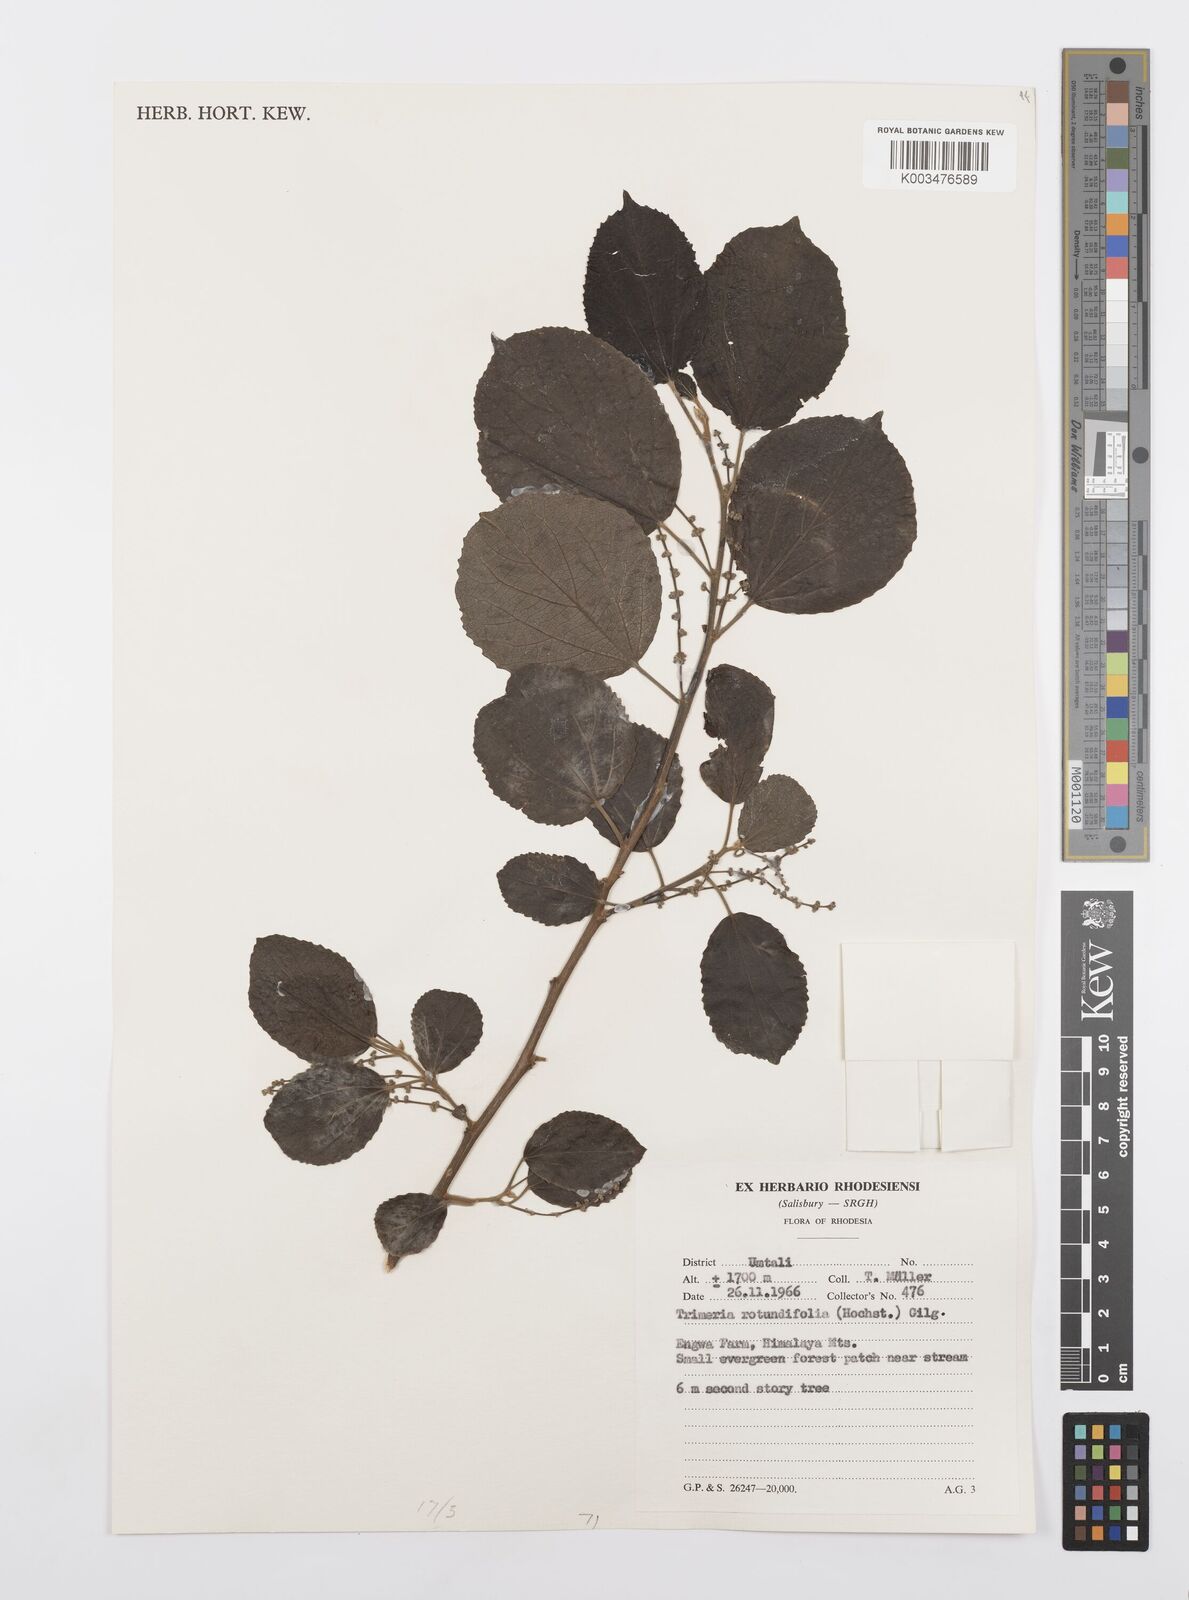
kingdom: Plantae
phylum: Tracheophyta
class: Magnoliopsida
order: Malpighiales
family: Salicaceae
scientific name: Salicaceae
